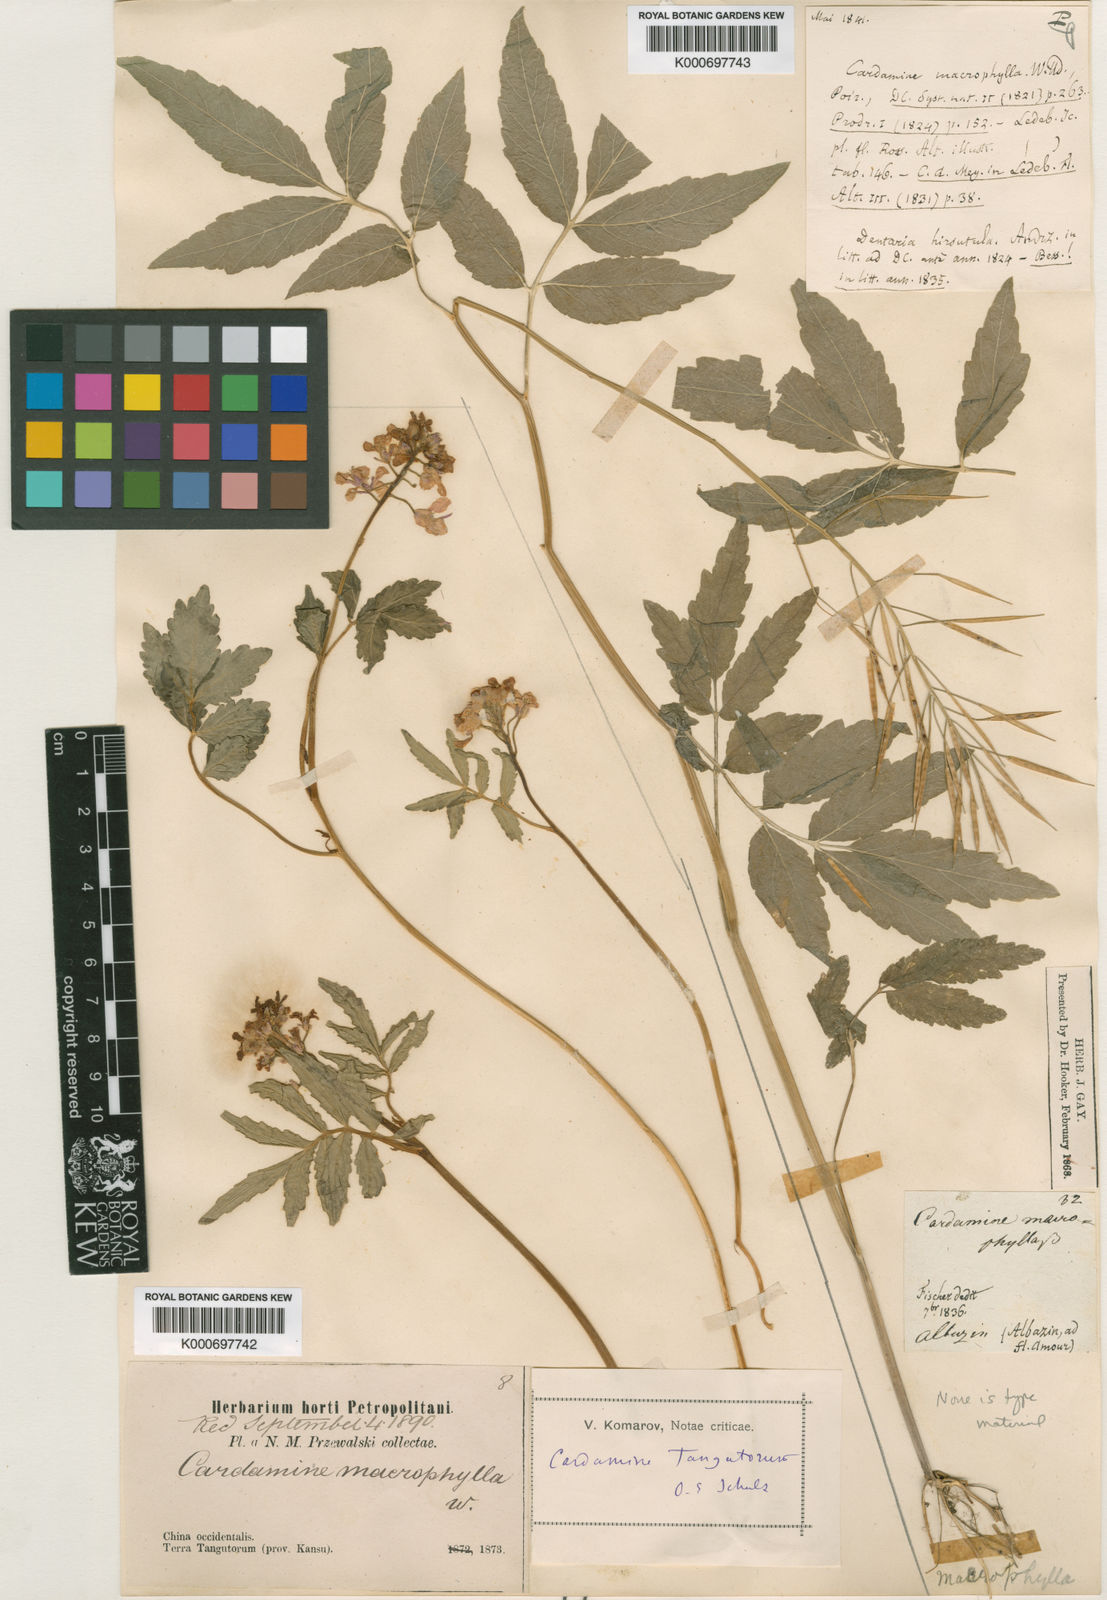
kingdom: Plantae
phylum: Tracheophyta
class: Magnoliopsida
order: Brassicales
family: Brassicaceae
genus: Cardamine
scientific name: Cardamine tangutorum
